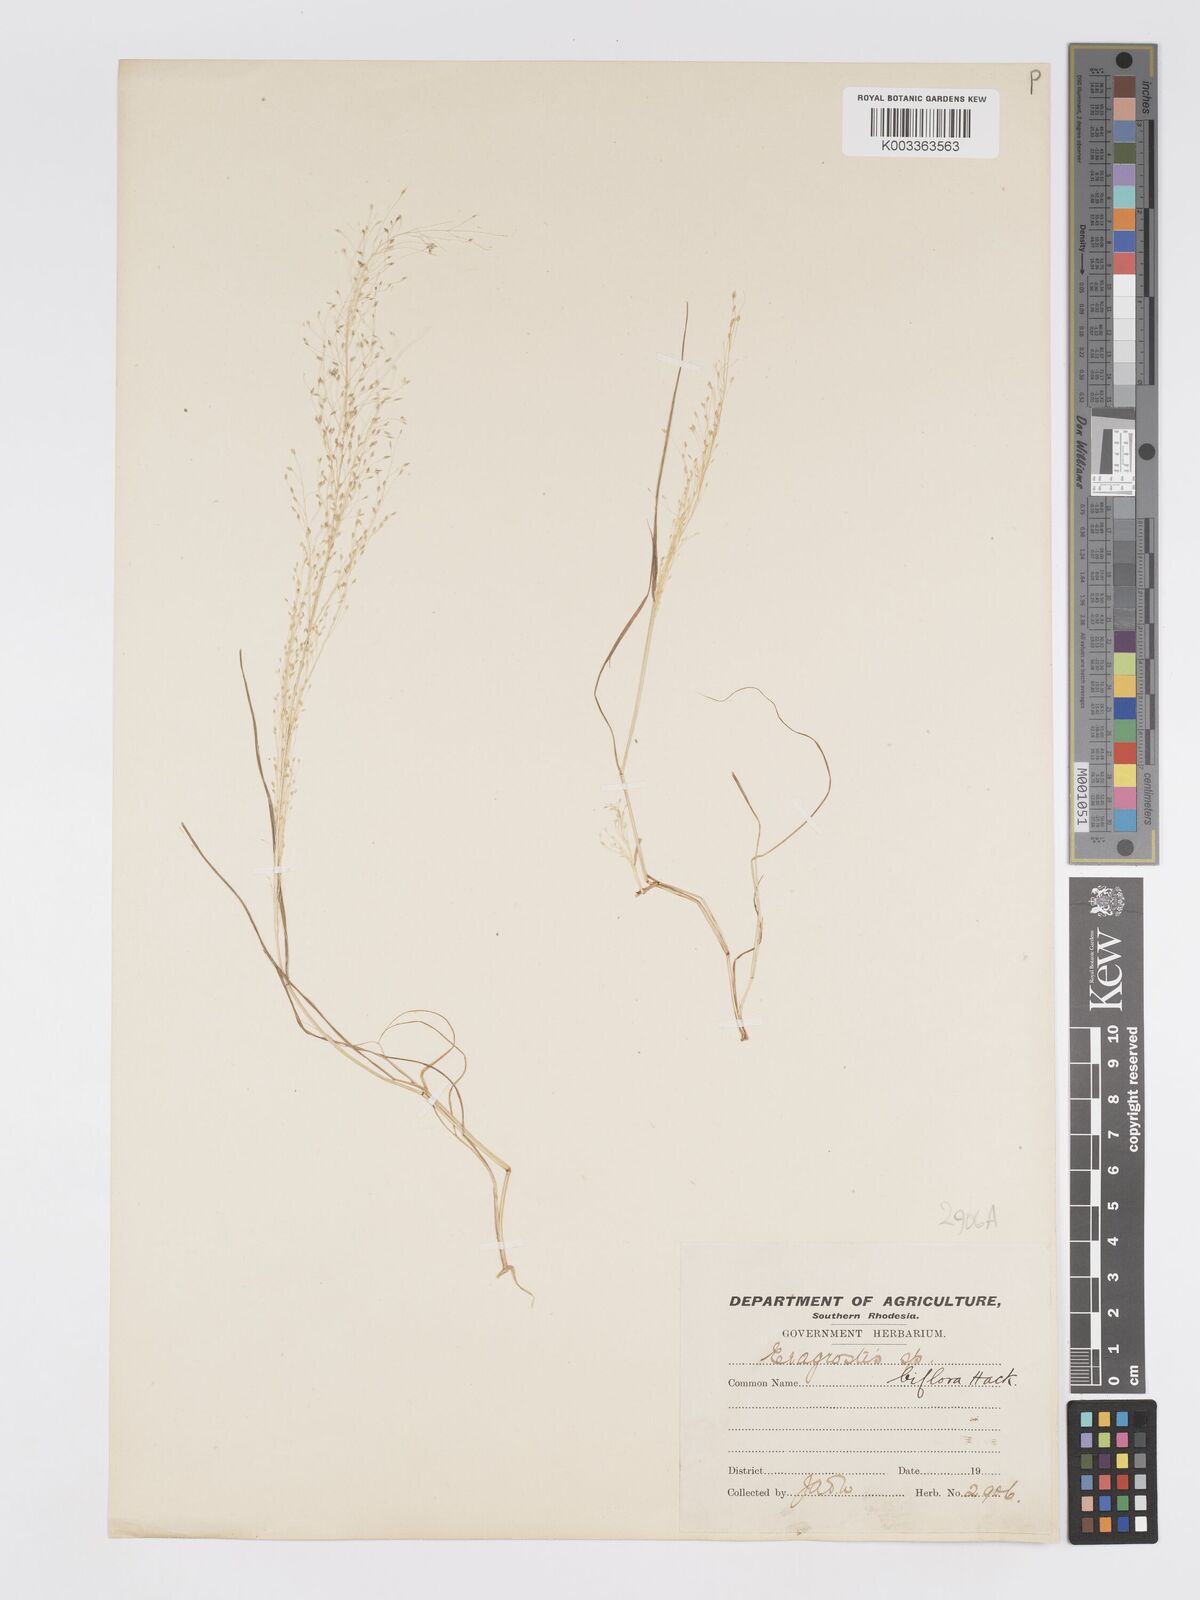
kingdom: Plantae
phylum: Tracheophyta
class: Liliopsida
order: Poales
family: Poaceae
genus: Eragrostis
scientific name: Eragrostis biflora
